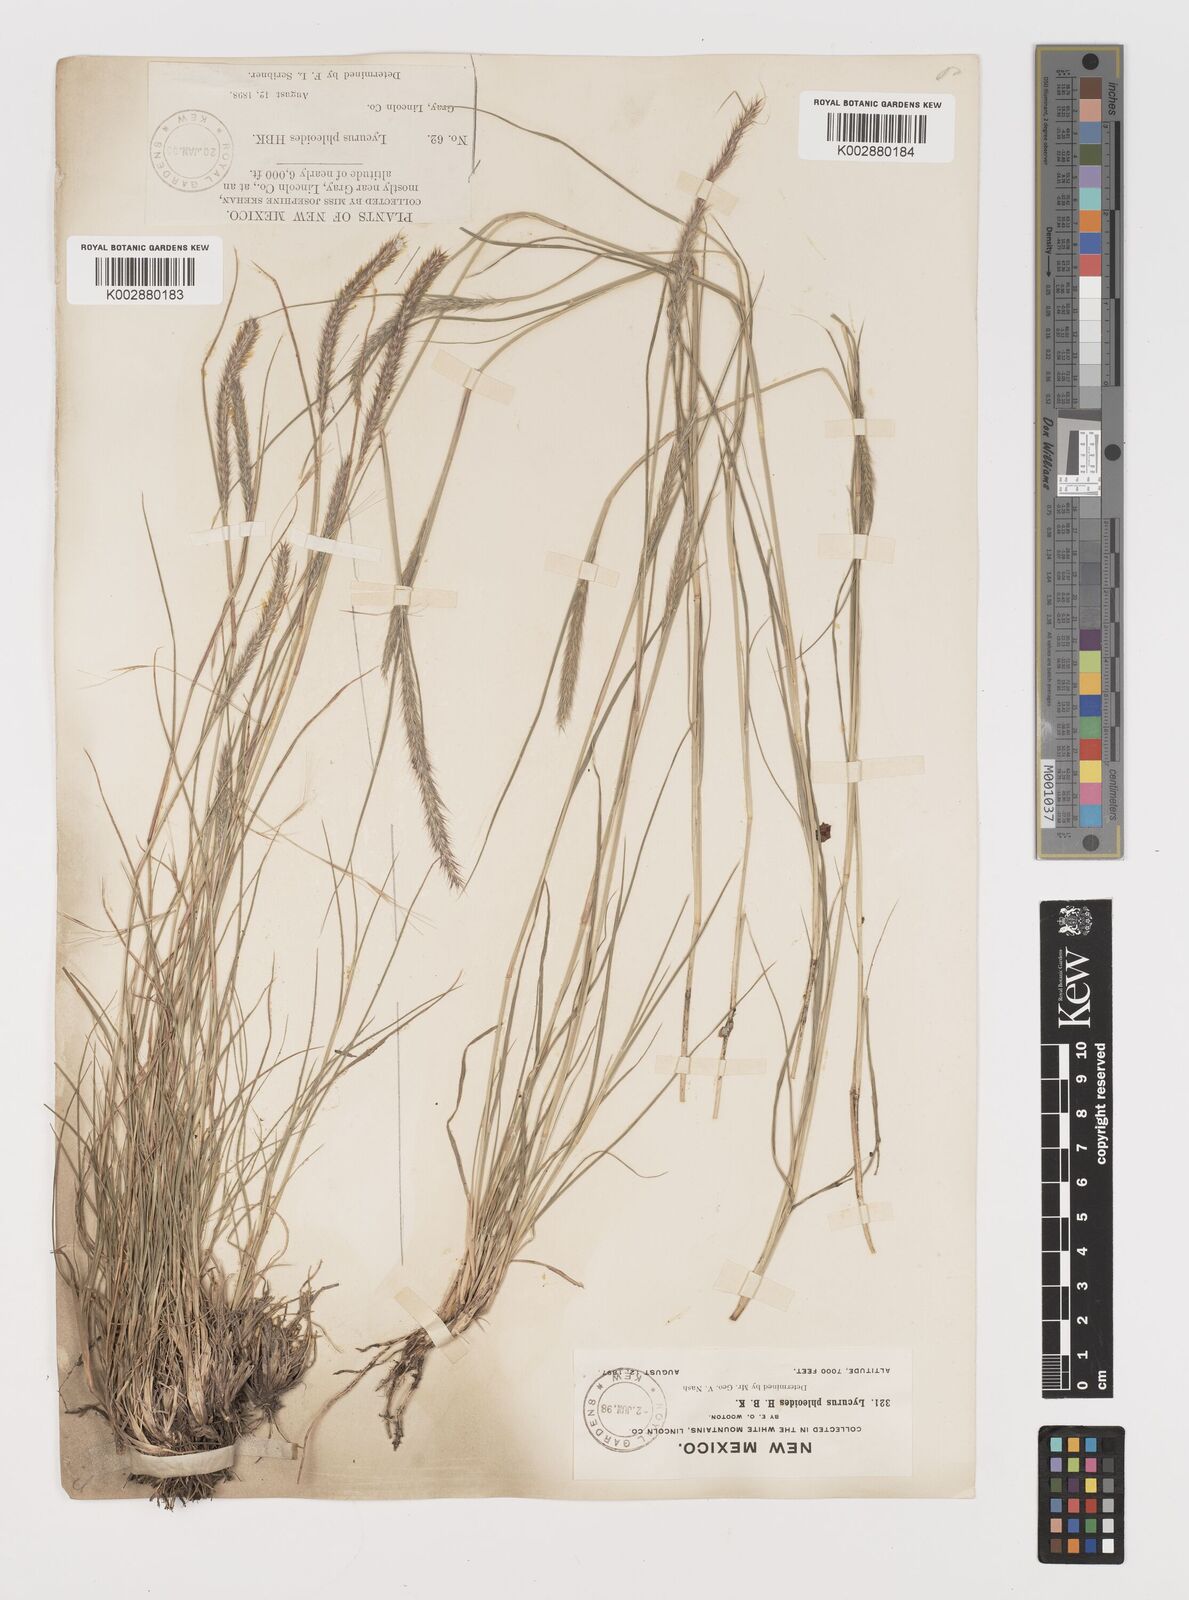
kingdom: Plantae
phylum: Tracheophyta
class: Liliopsida
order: Poales
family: Poaceae
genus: Muhlenbergia
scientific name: Muhlenbergia alopecuroides
